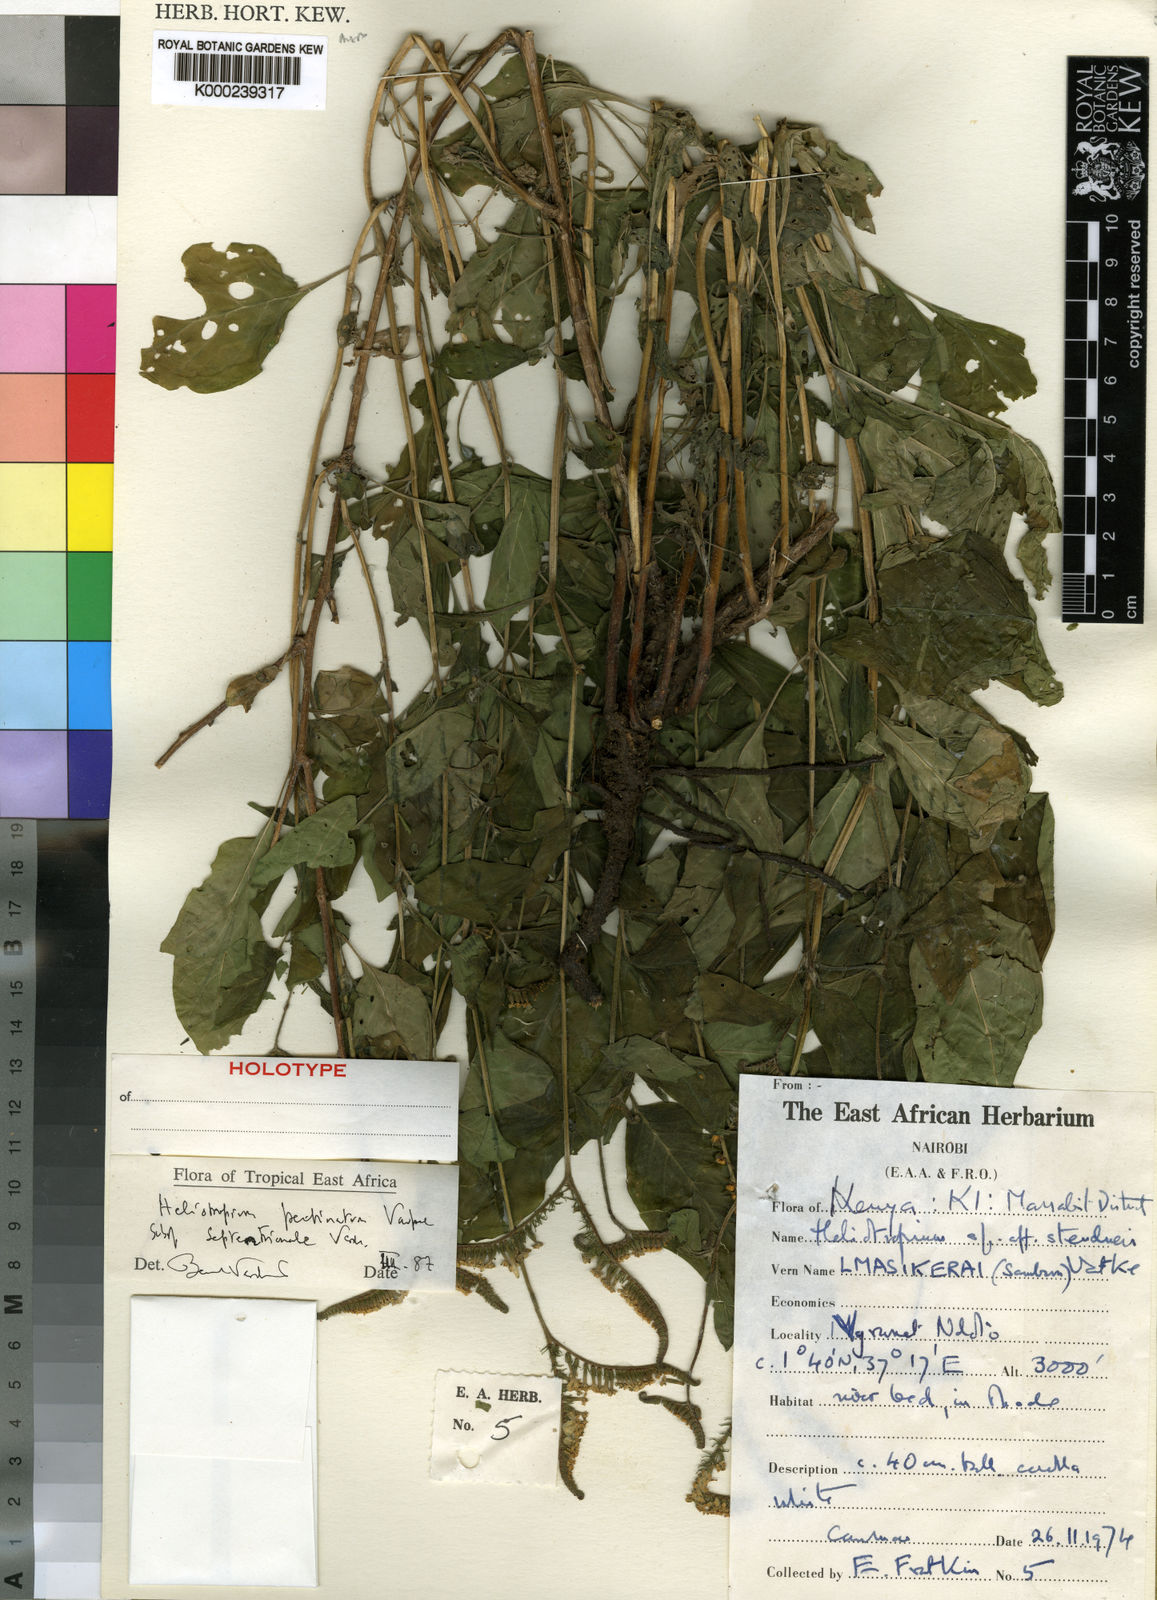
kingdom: Plantae
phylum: Tracheophyta
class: Magnoliopsida
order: Boraginales
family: Heliotropiaceae
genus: Heliotropium
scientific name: Heliotropium pectinatum
